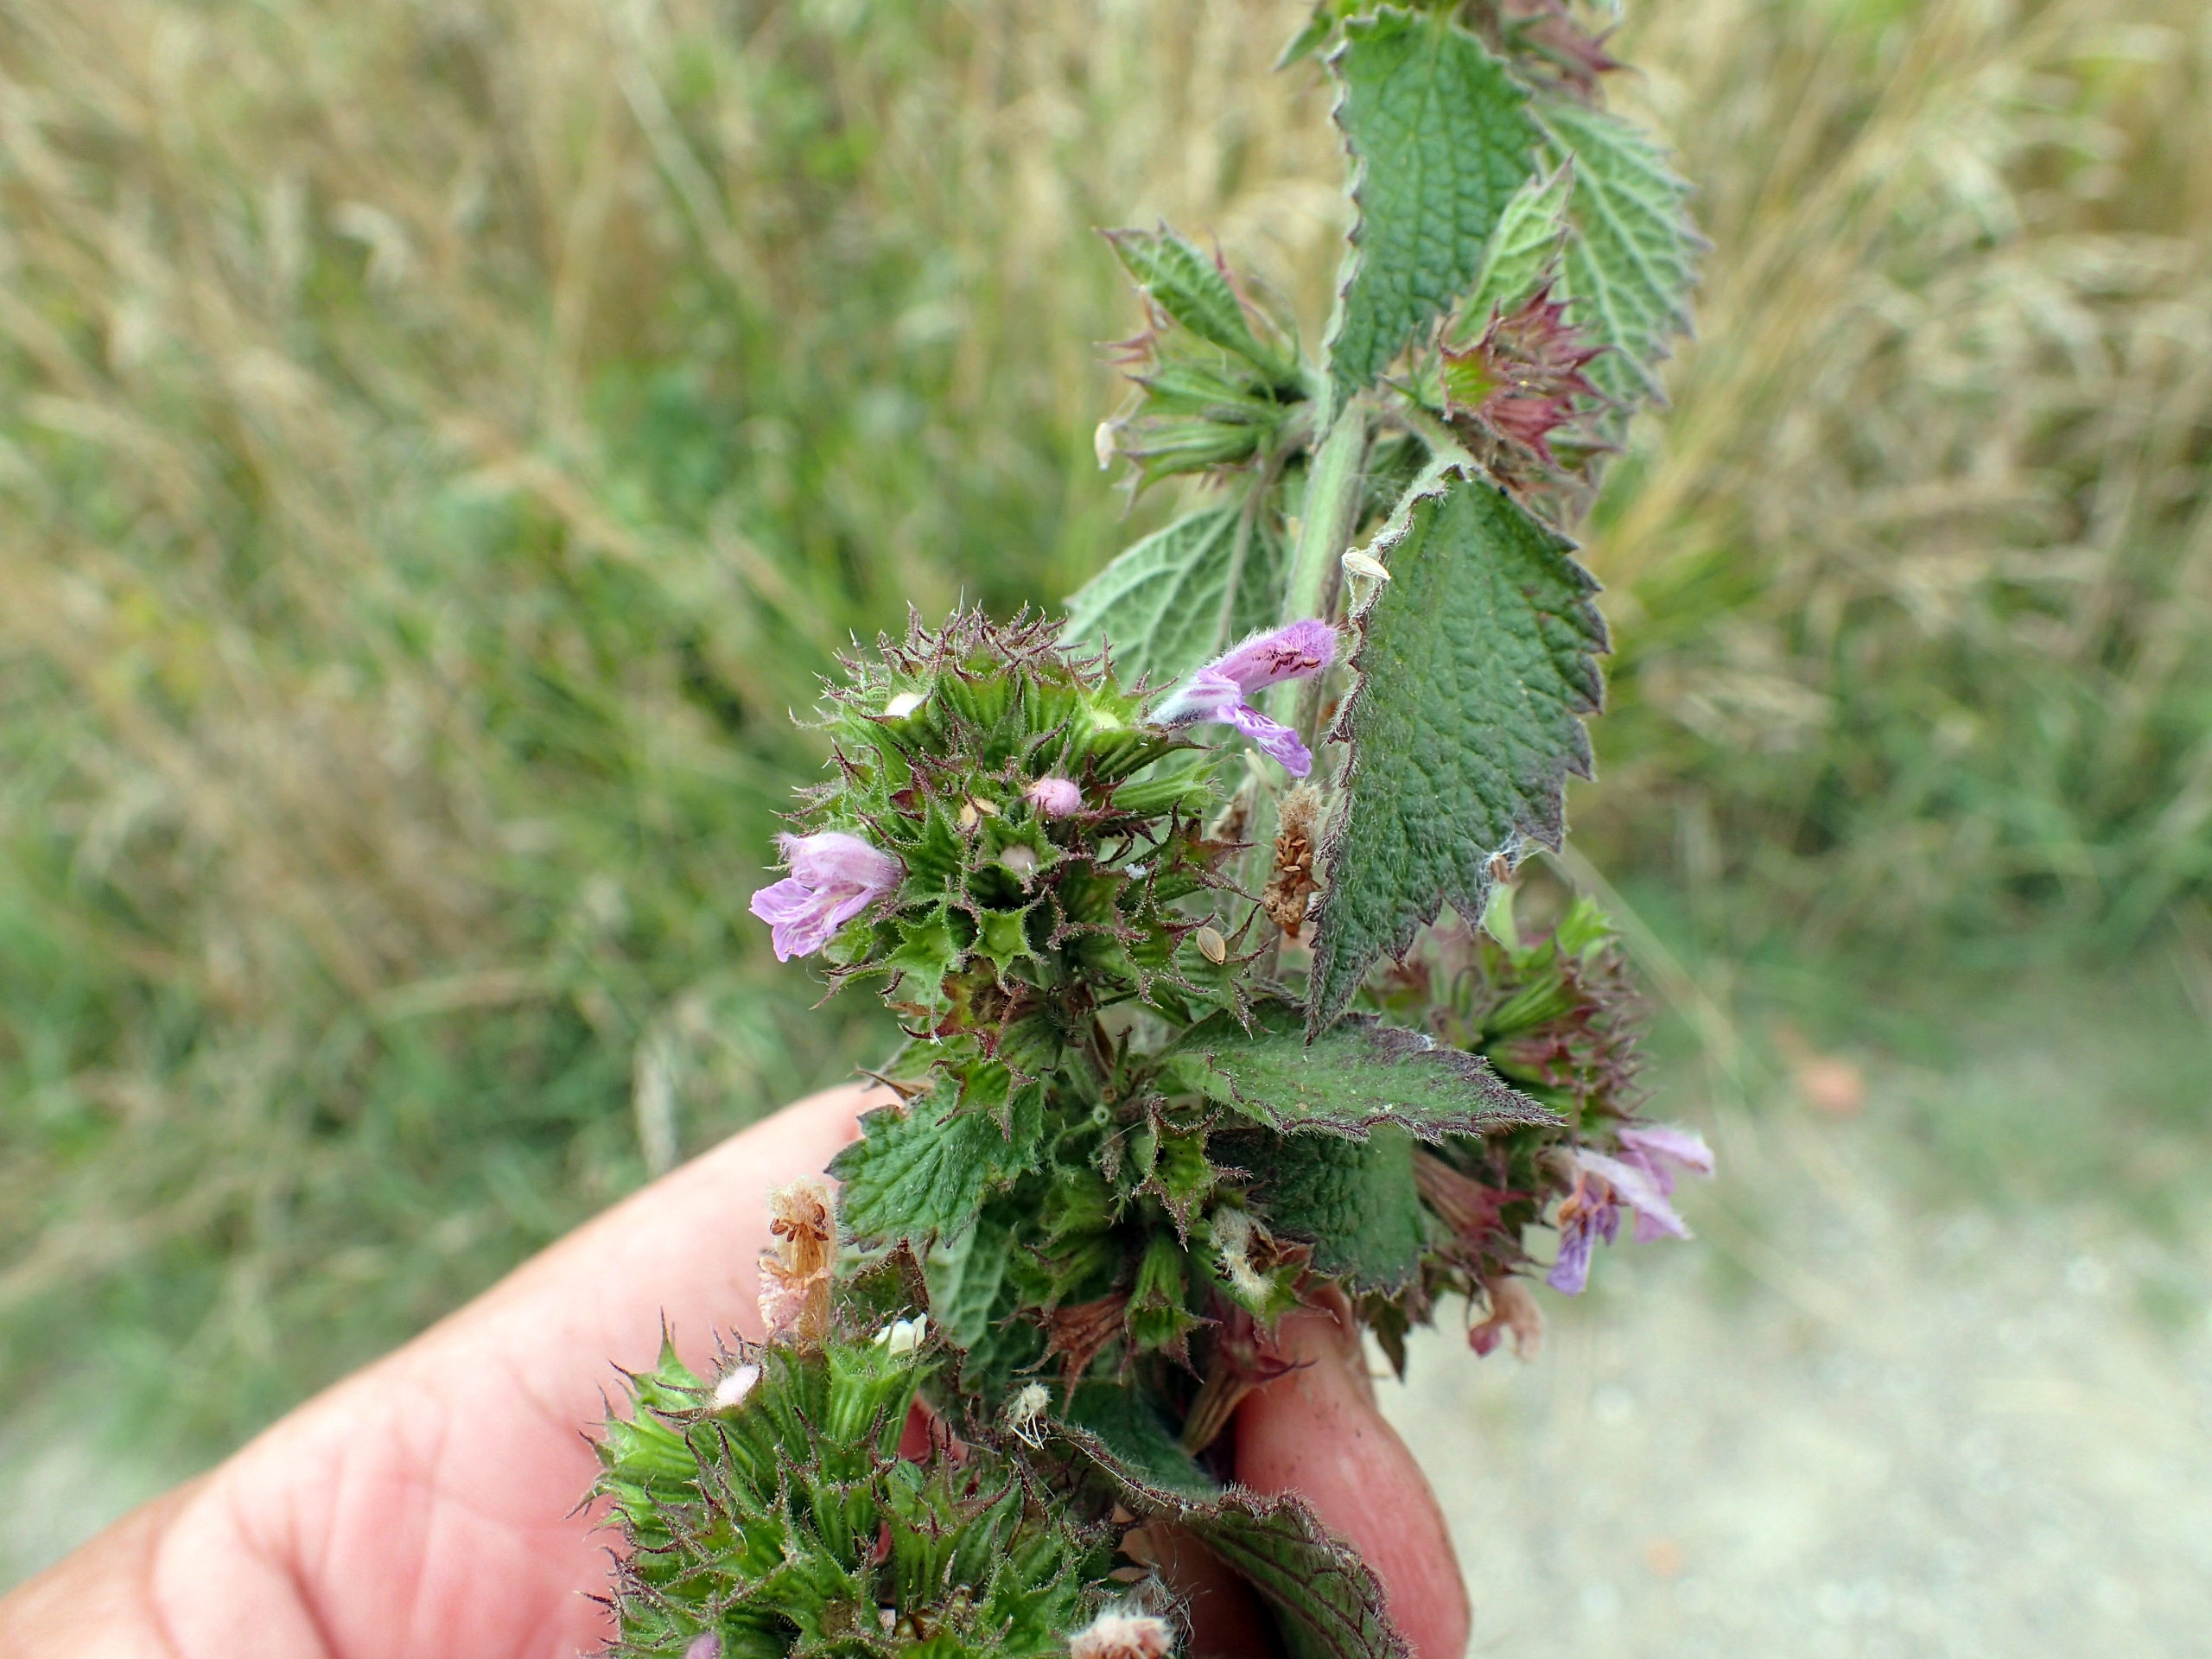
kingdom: Plantae
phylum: Tracheophyta
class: Magnoliopsida
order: Lamiales
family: Lamiaceae
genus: Ballota
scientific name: Ballota nigra
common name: Rød tandbæger
